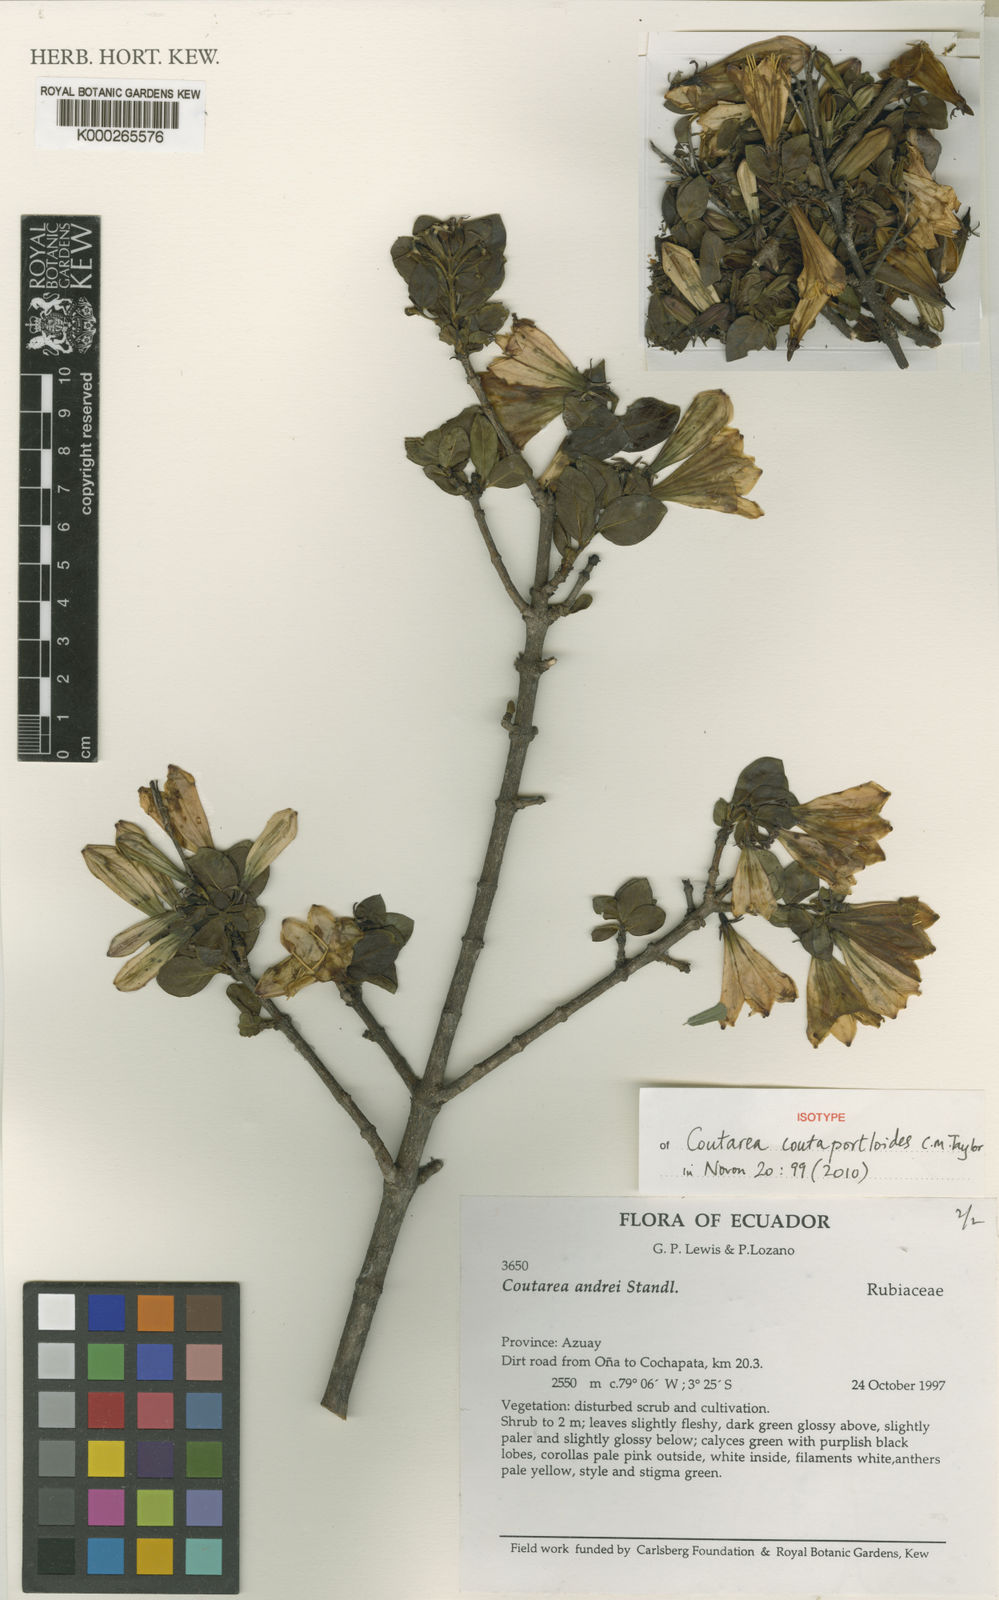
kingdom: Plantae
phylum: Tracheophyta
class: Magnoliopsida
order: Gentianales
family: Rubiaceae
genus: Coutareopsis
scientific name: Coutareopsis coutaportloides
